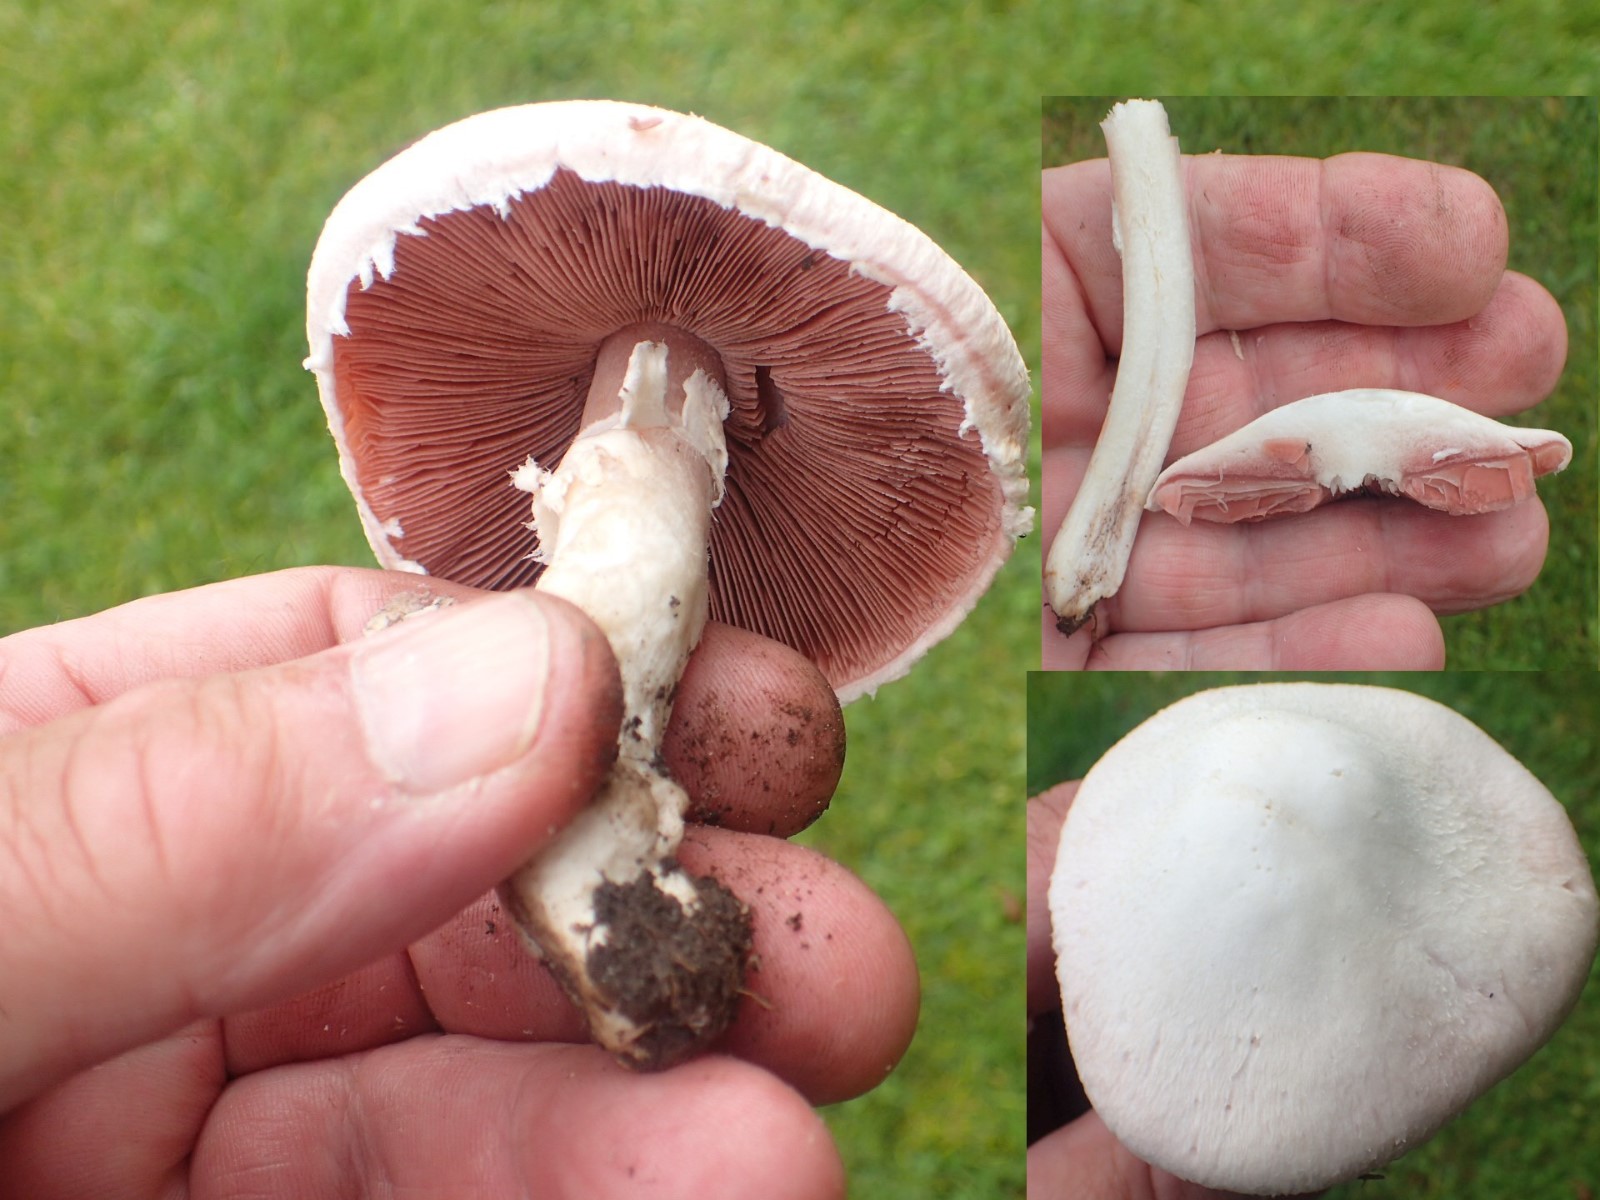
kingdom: Fungi
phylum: Basidiomycota
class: Agaricomycetes
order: Agaricales
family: Agaricaceae
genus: Agaricus
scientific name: Agaricus campestris
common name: mark-champignon
